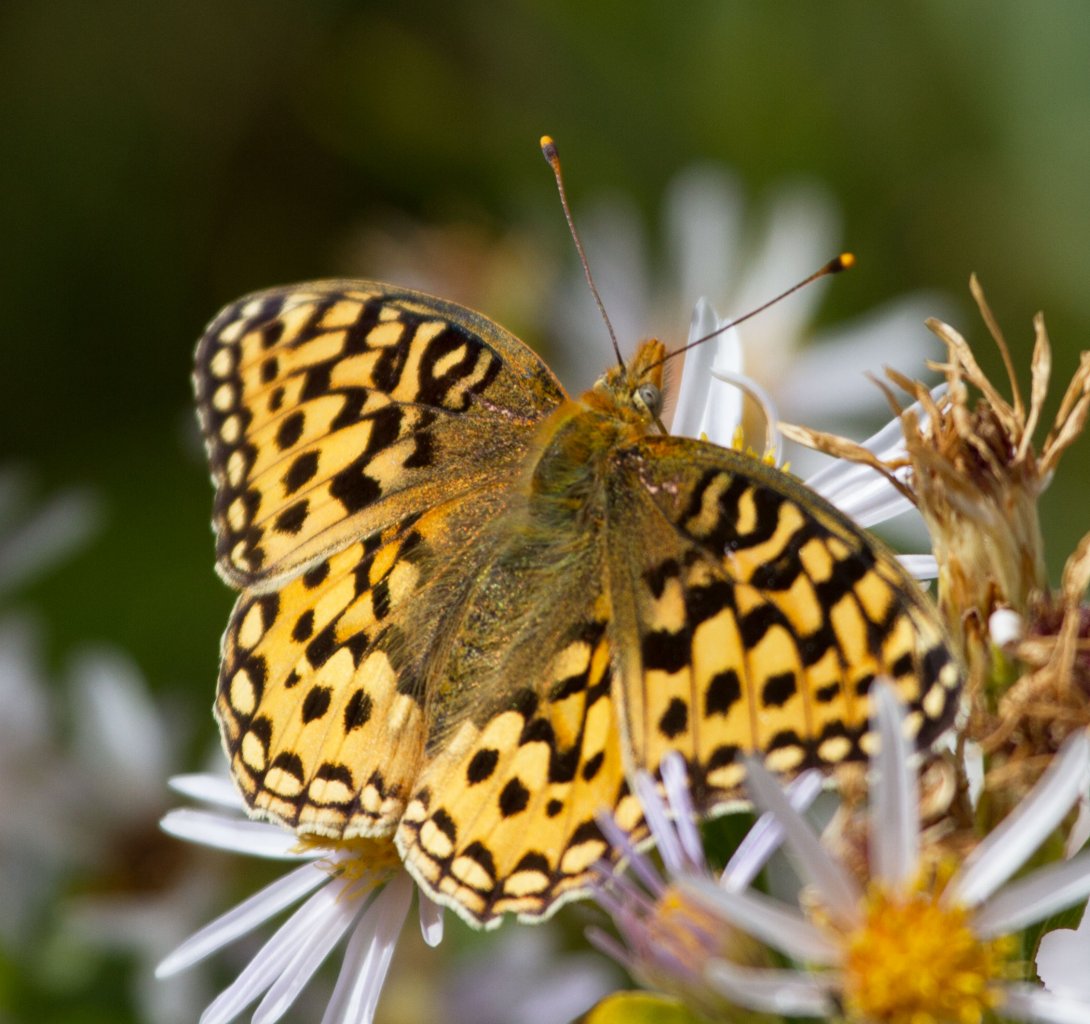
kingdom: Animalia
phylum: Arthropoda
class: Insecta
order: Lepidoptera
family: Nymphalidae
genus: Speyeria
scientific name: Speyeria egleis
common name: Great Basin Fritillary
